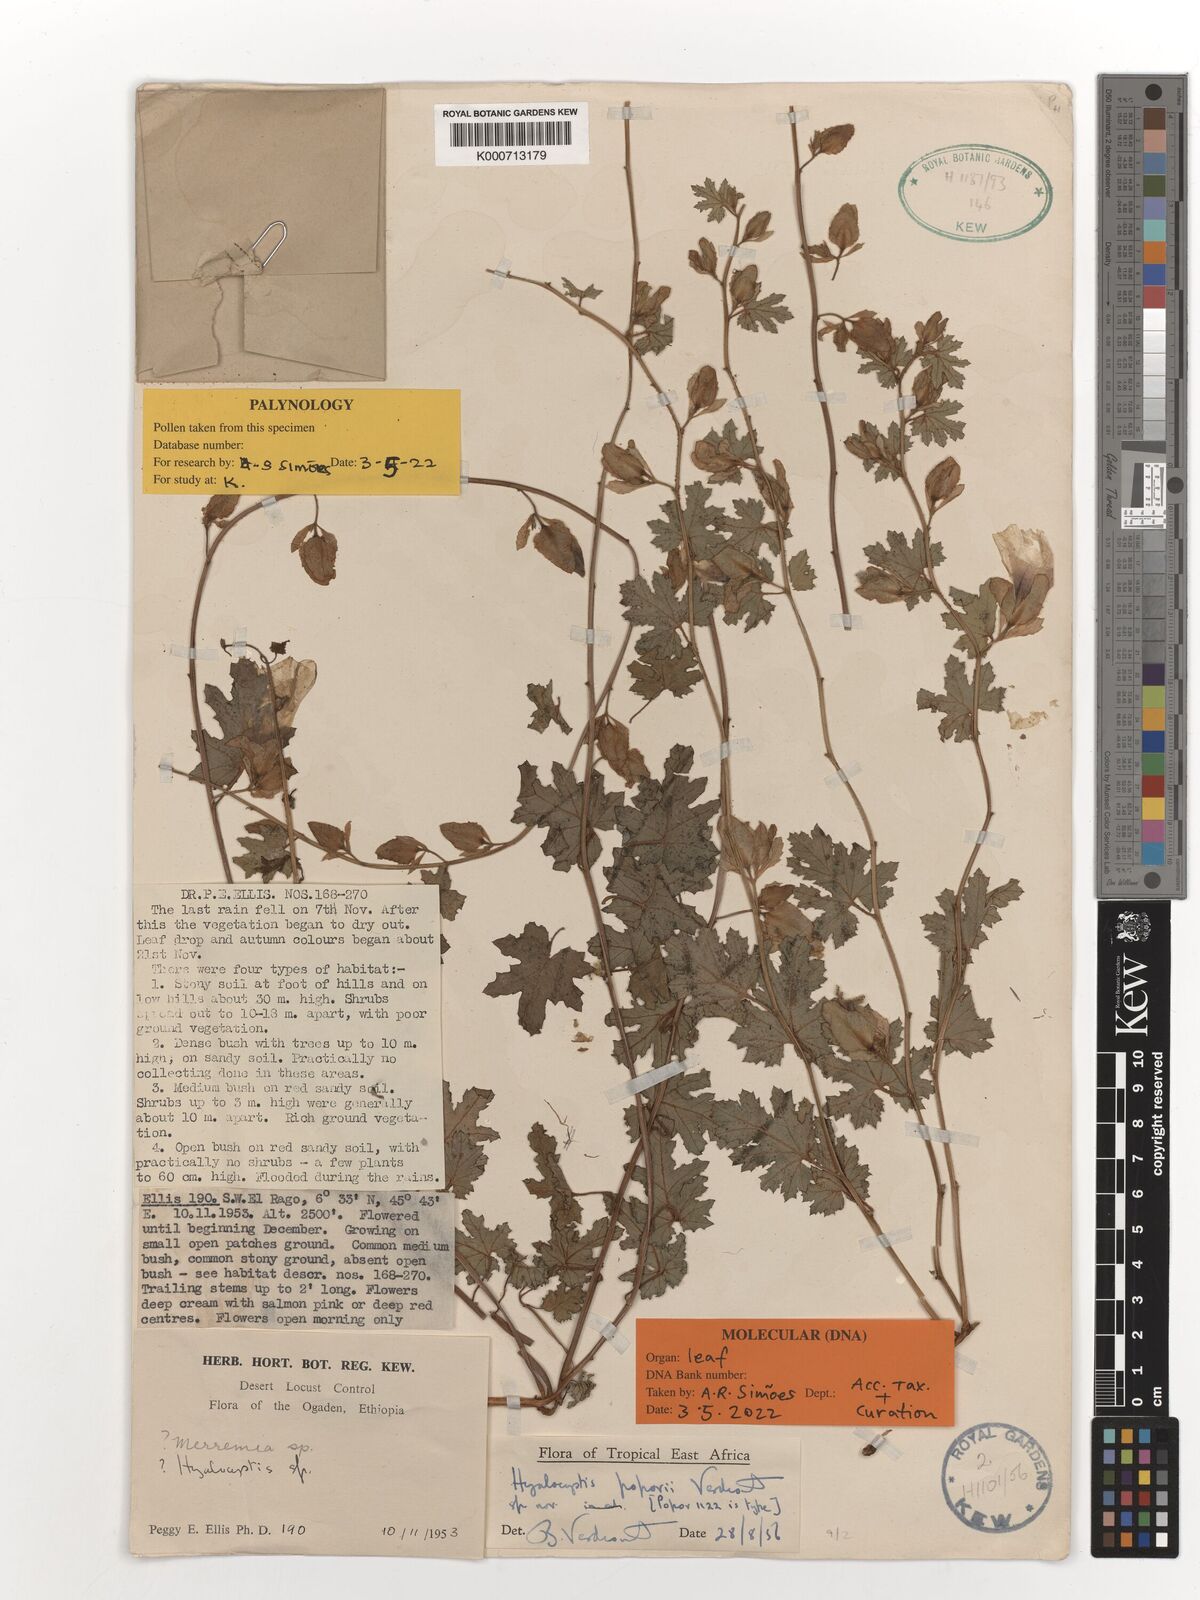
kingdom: Plantae
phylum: Tracheophyta
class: Magnoliopsida
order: Solanales
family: Convolvulaceae
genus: Hyalocystis
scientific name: Hyalocystis popovii
